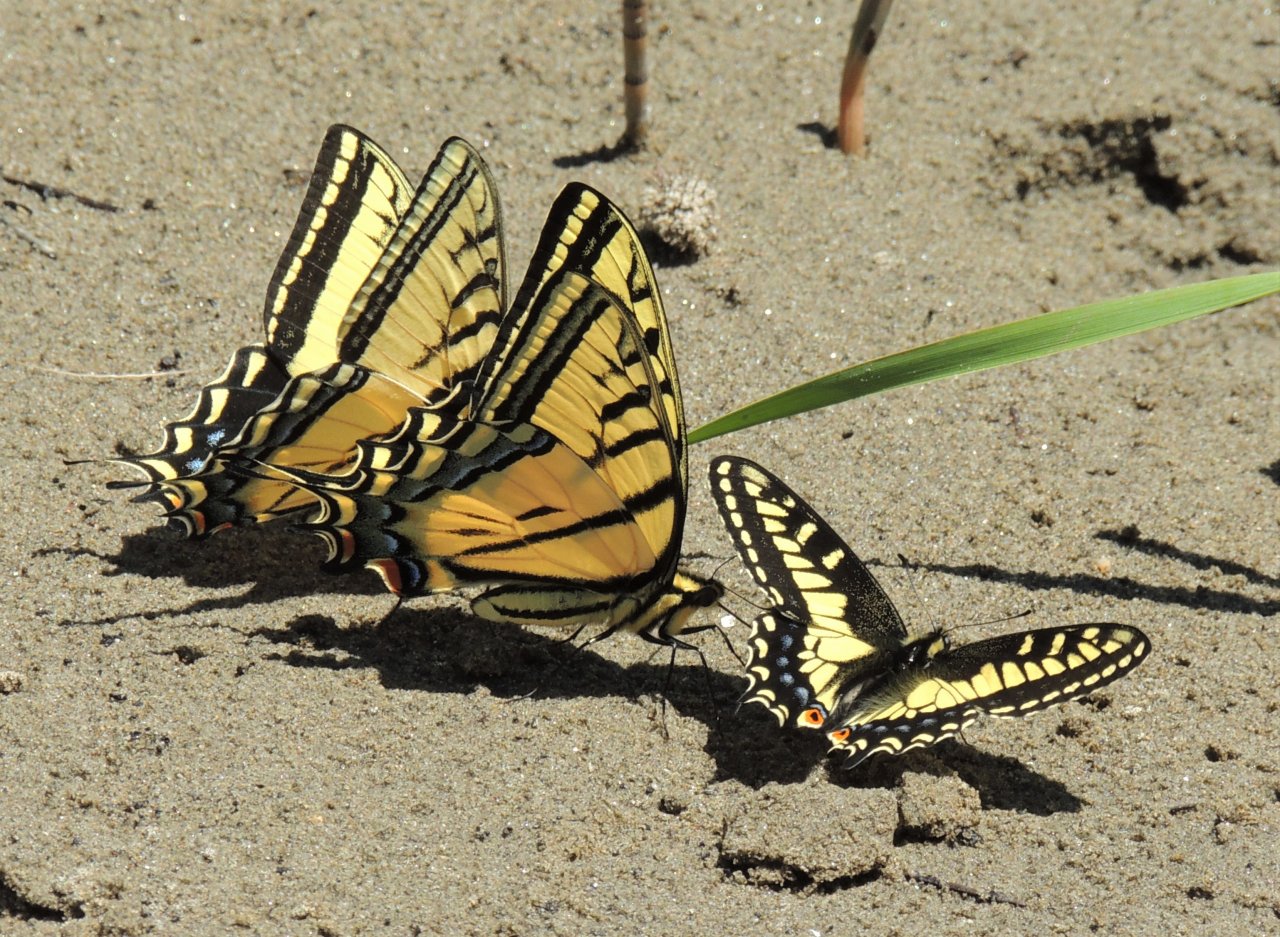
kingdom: Animalia
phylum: Arthropoda
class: Insecta
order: Lepidoptera
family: Papilionidae
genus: Papilio
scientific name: Papilio zelicaon
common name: Anise Swallowtail
